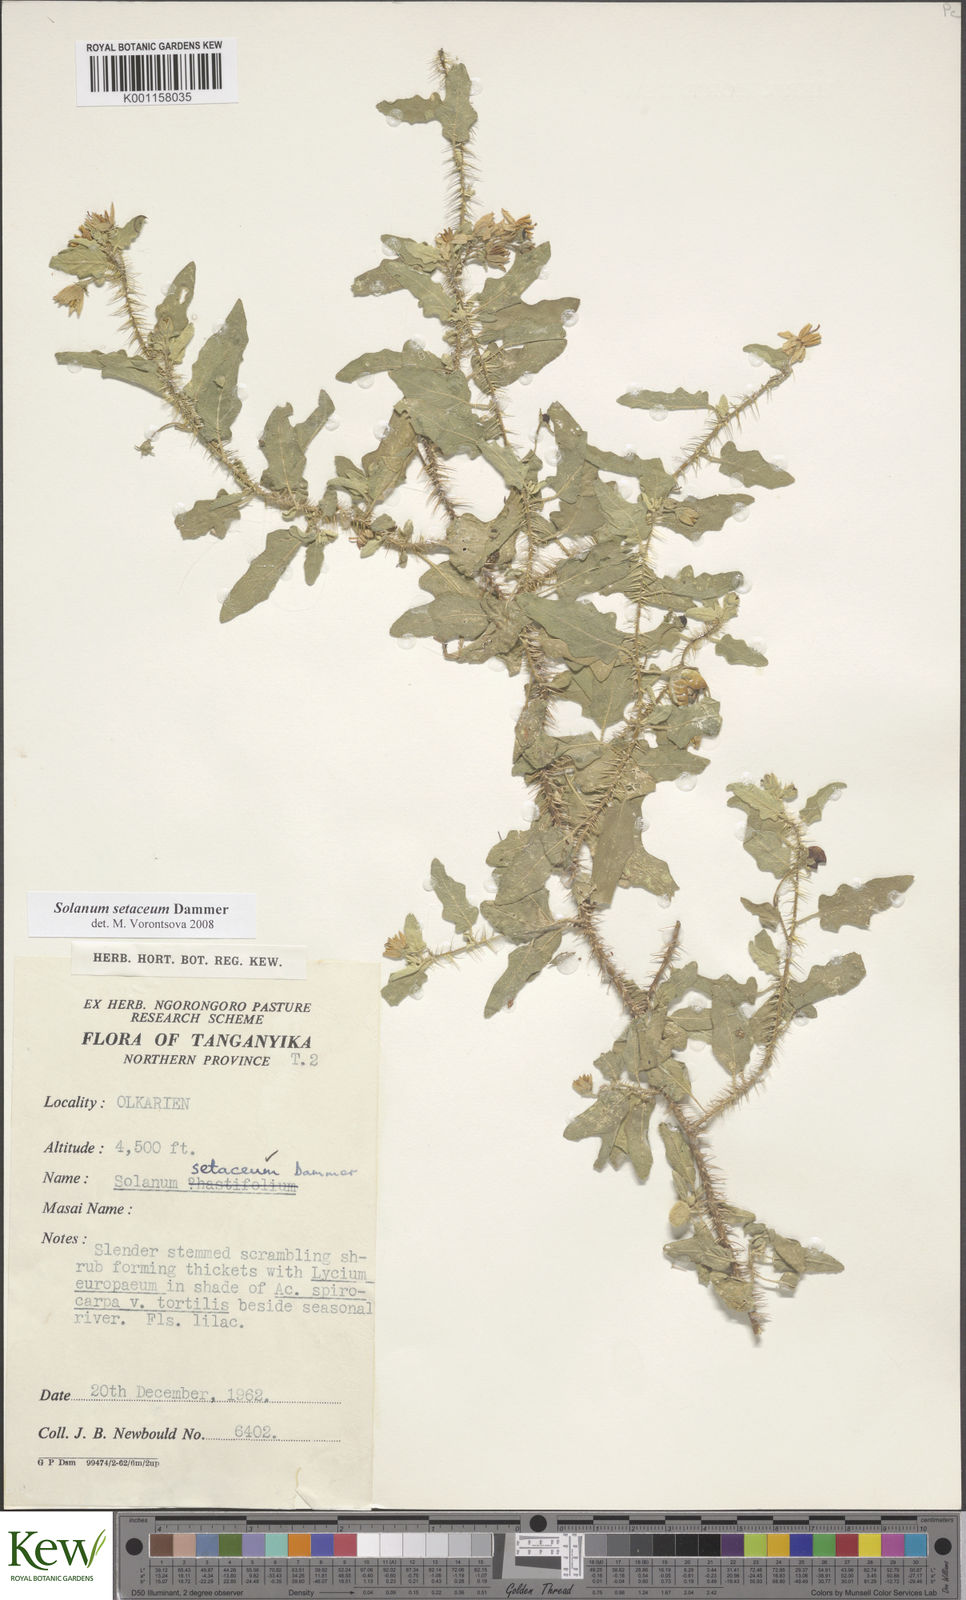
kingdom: Plantae
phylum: Tracheophyta
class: Magnoliopsida
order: Solanales
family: Solanaceae
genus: Solanum
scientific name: Solanum setaceum
